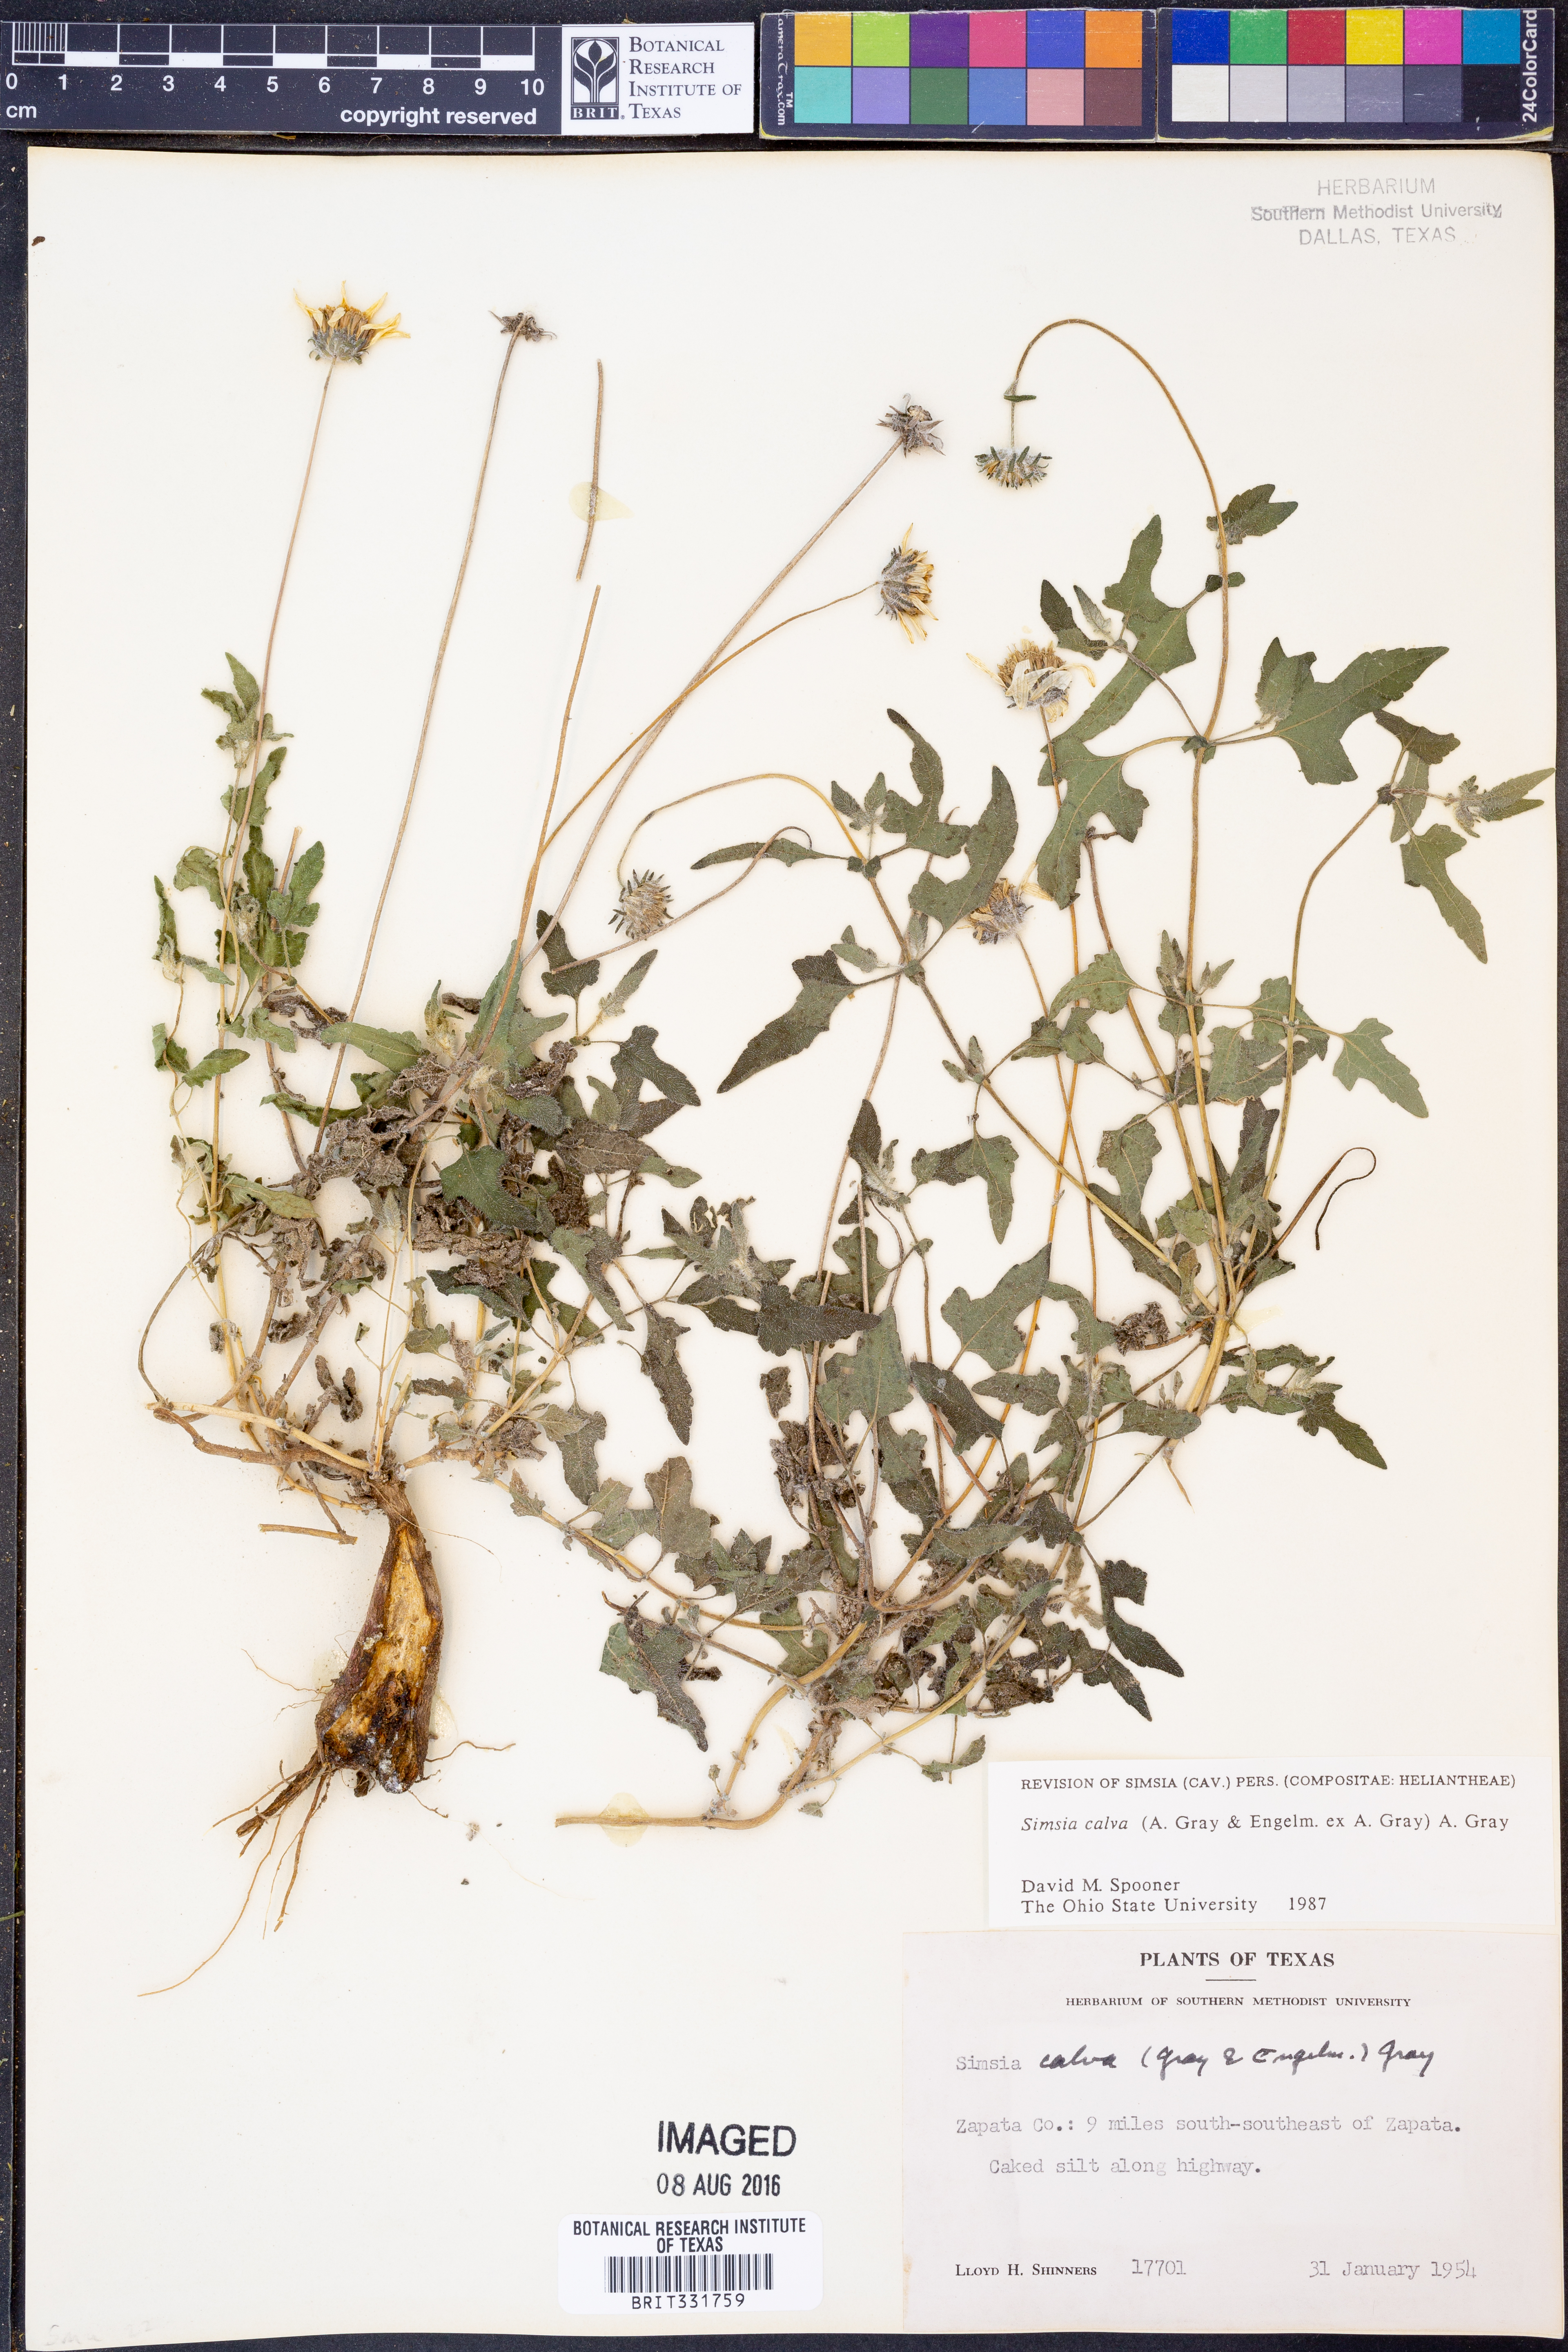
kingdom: Plantae
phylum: Tracheophyta
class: Magnoliopsida
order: Asterales
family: Asteraceae
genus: Simsia
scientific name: Simsia calva
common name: Awnless bush-sunflower
